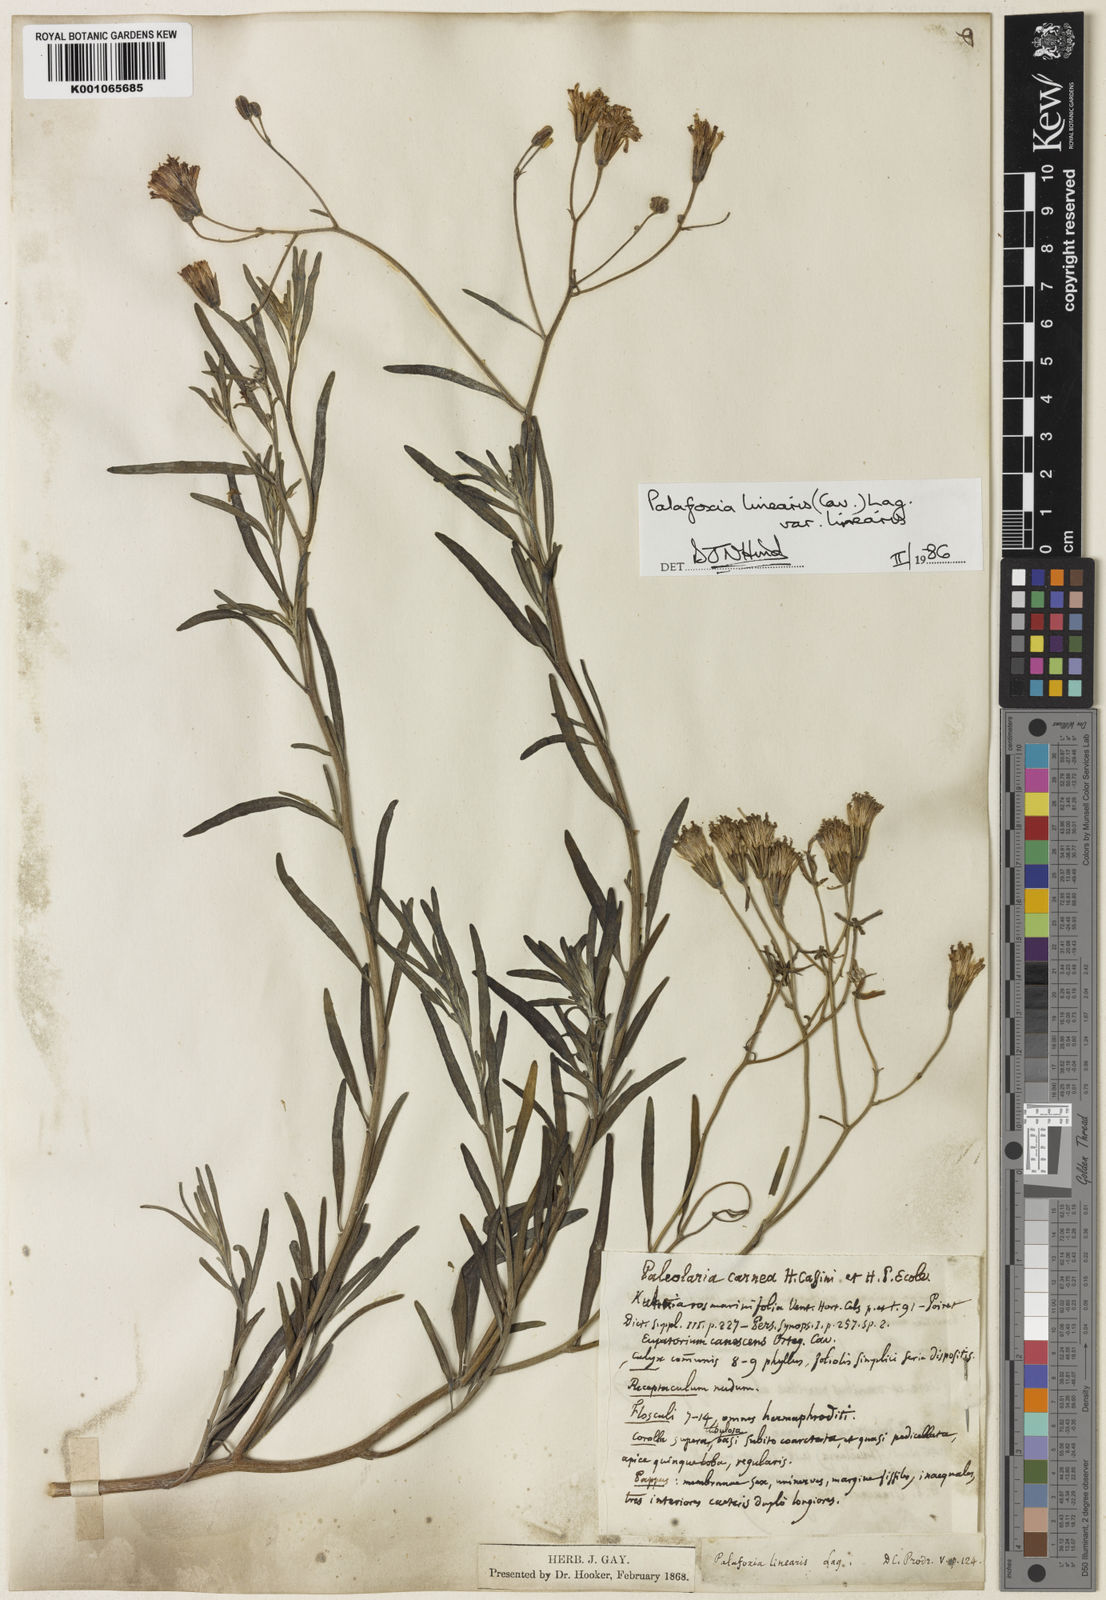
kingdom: Plantae
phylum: Tracheophyta
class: Magnoliopsida
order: Asterales
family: Asteraceae
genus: Palafoxia
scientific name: Palafoxia linearis
